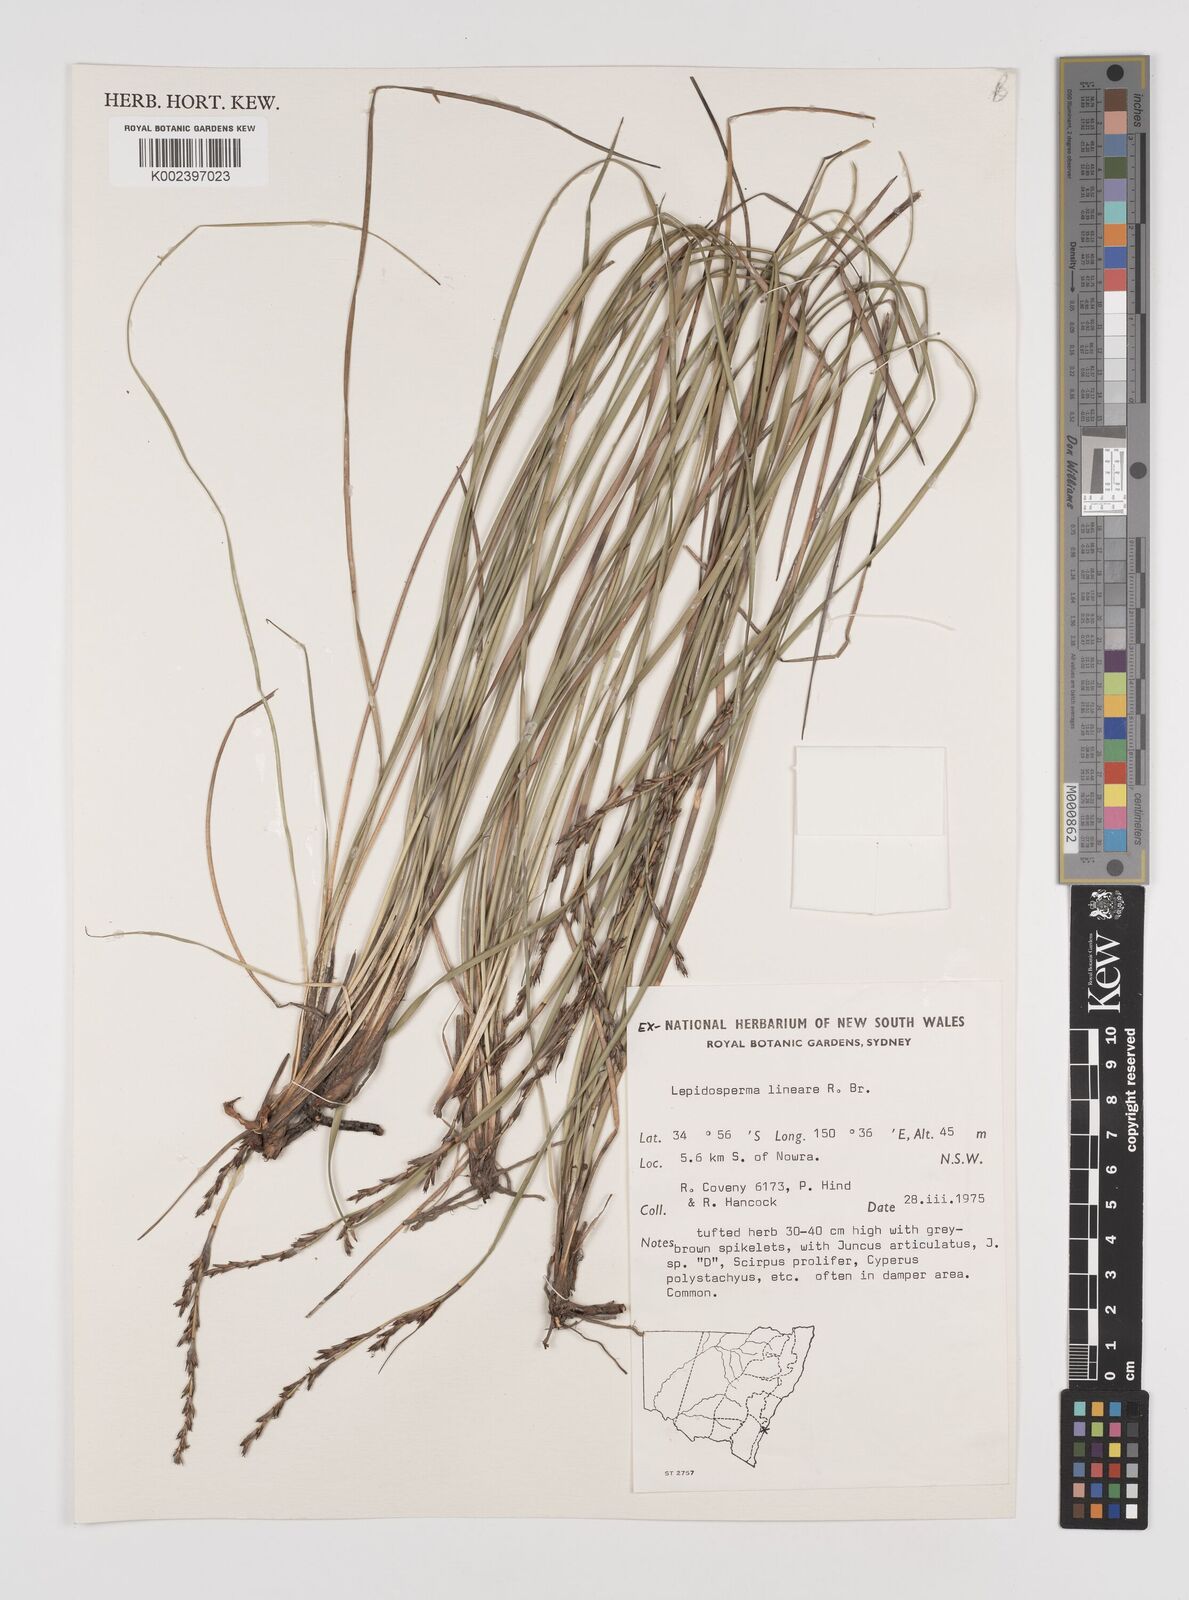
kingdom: Plantae
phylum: Tracheophyta
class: Liliopsida
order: Poales
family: Cyperaceae
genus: Lepidosperma
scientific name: Lepidosperma lineare
